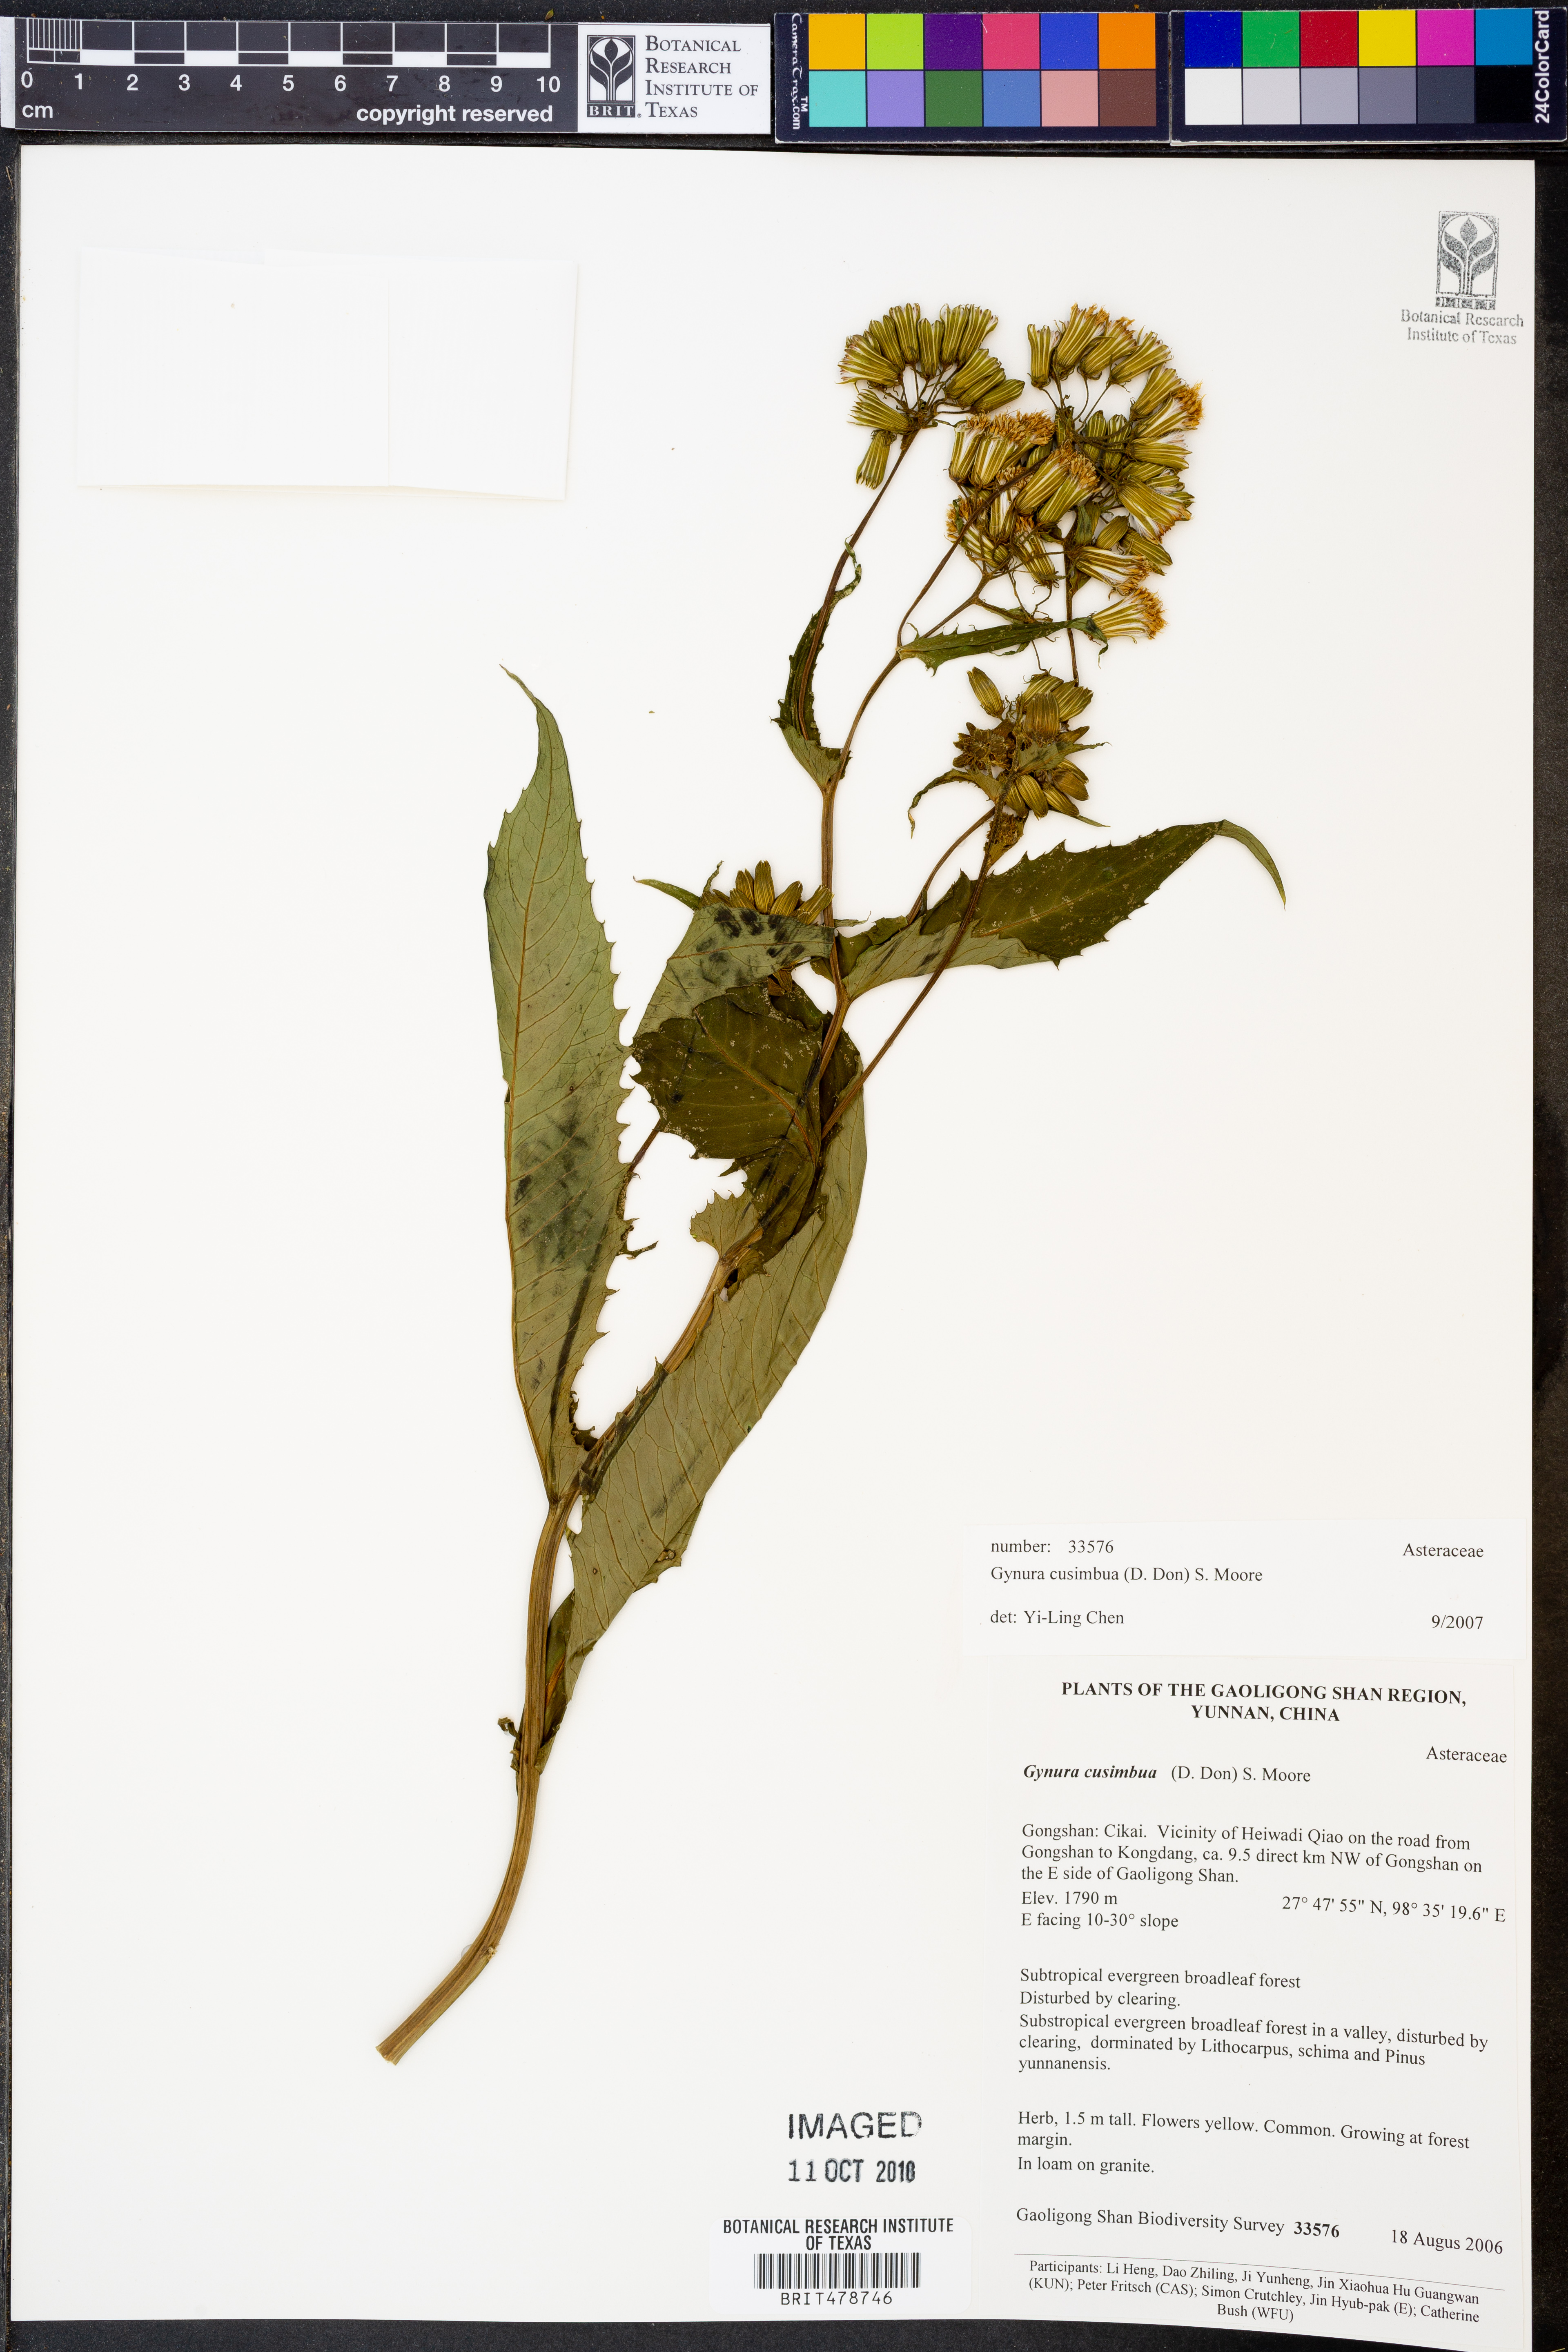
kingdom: Plantae
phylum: Tracheophyta
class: Magnoliopsida
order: Asterales
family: Asteraceae
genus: Gynura
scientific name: Gynura cusimbua
